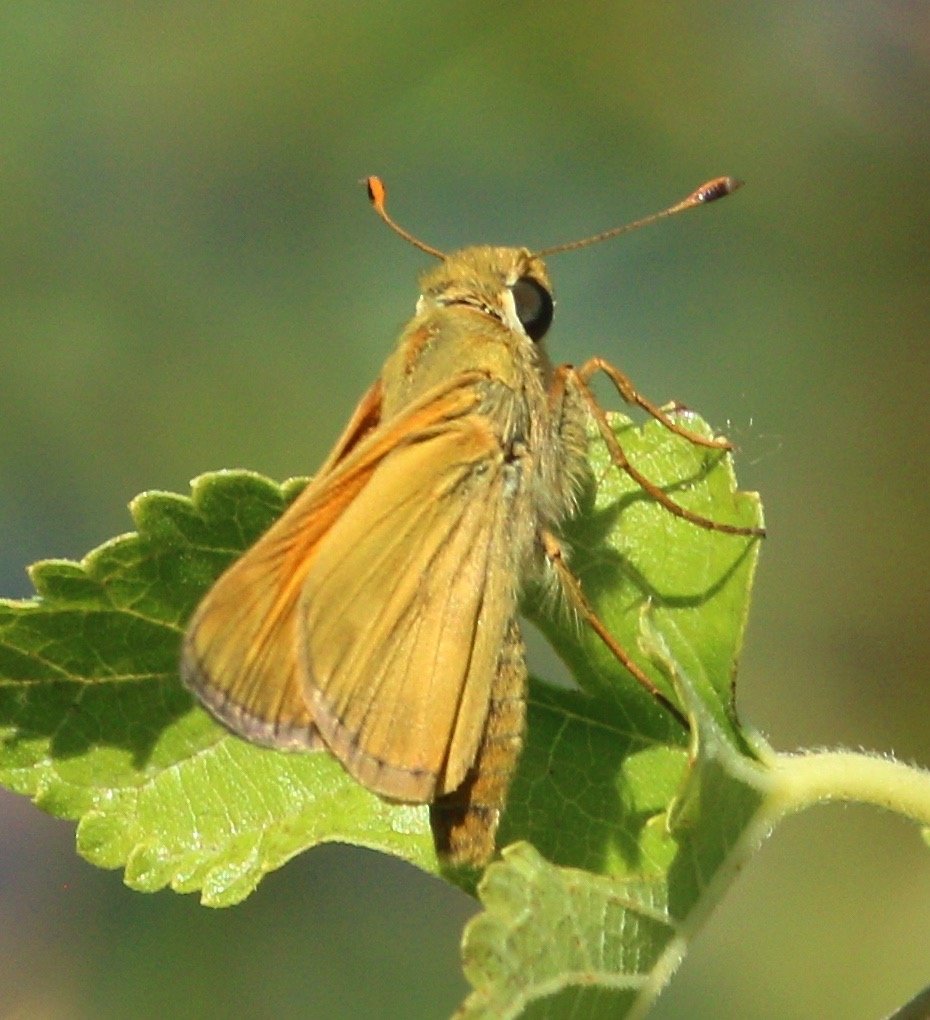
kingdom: Animalia
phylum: Arthropoda
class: Insecta
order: Lepidoptera
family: Hesperiidae
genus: Atalopedes
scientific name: Atalopedes campestris
